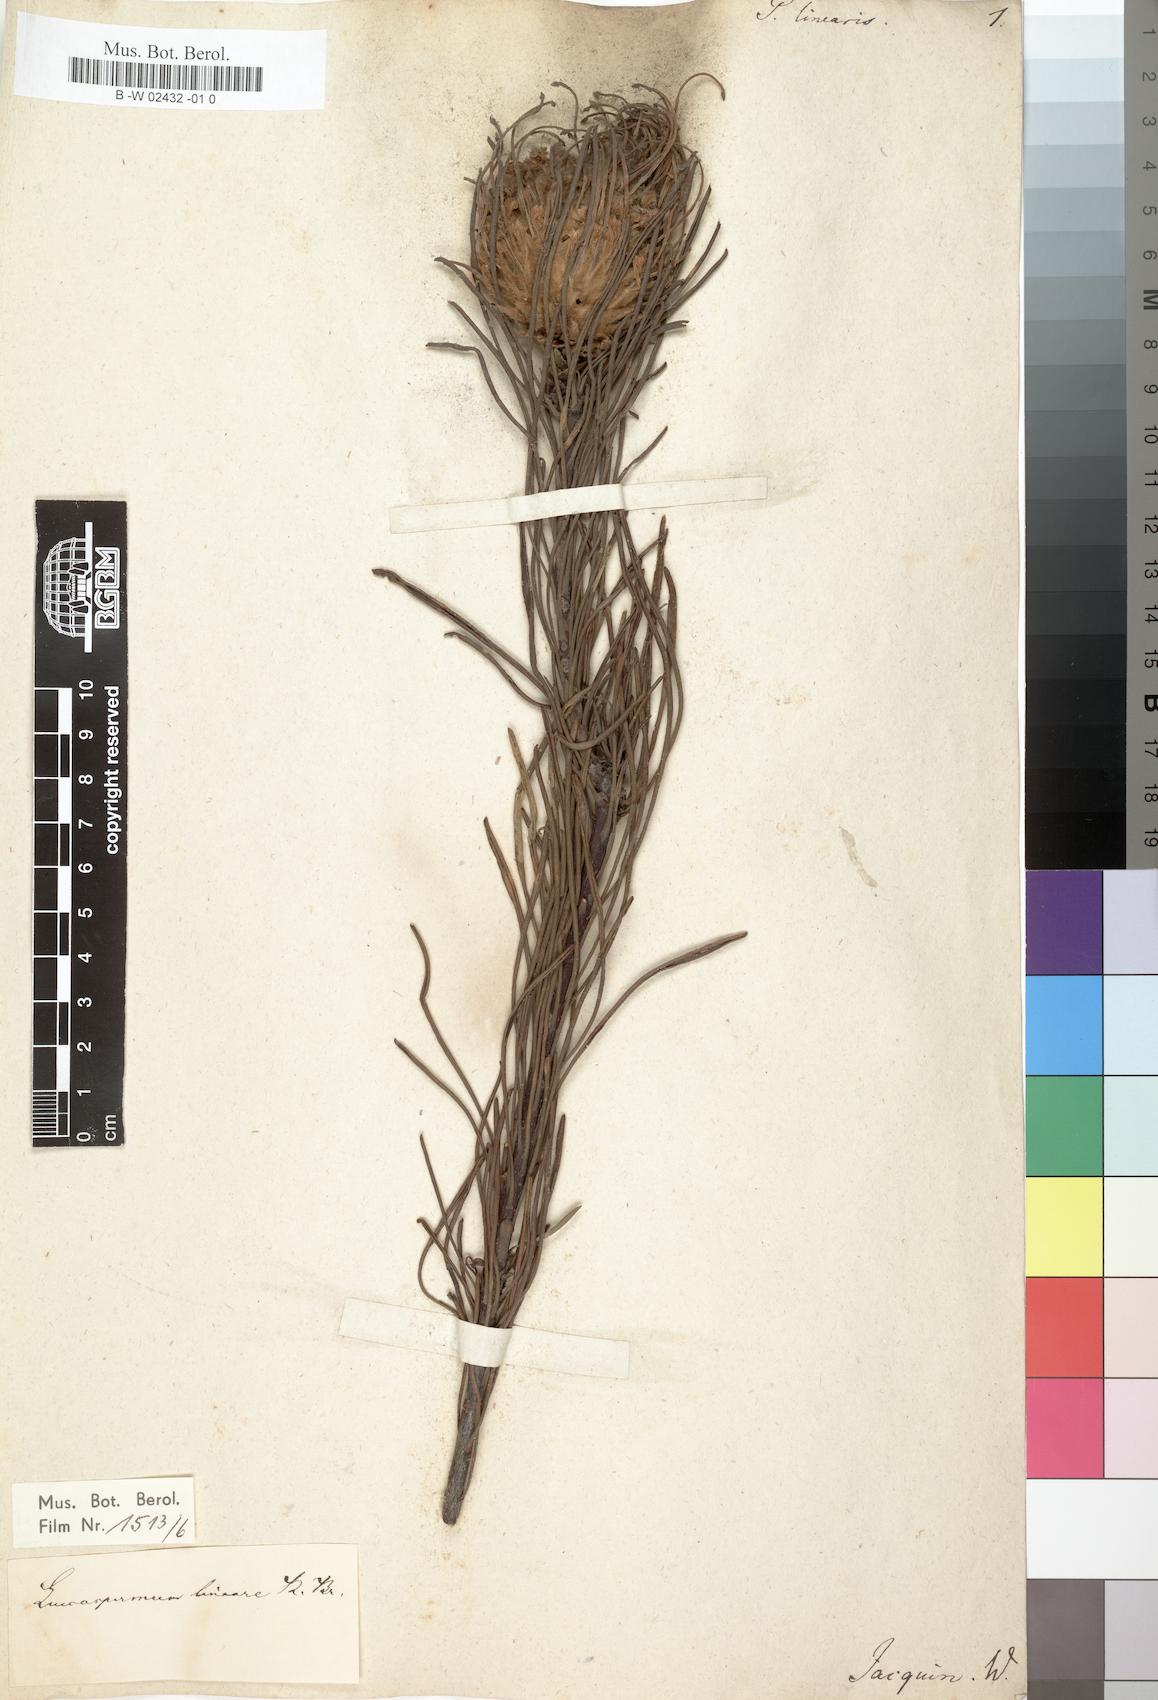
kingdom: Plantae
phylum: Tracheophyta
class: Magnoliopsida
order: Proteales
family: Proteaceae
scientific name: Proteaceae
